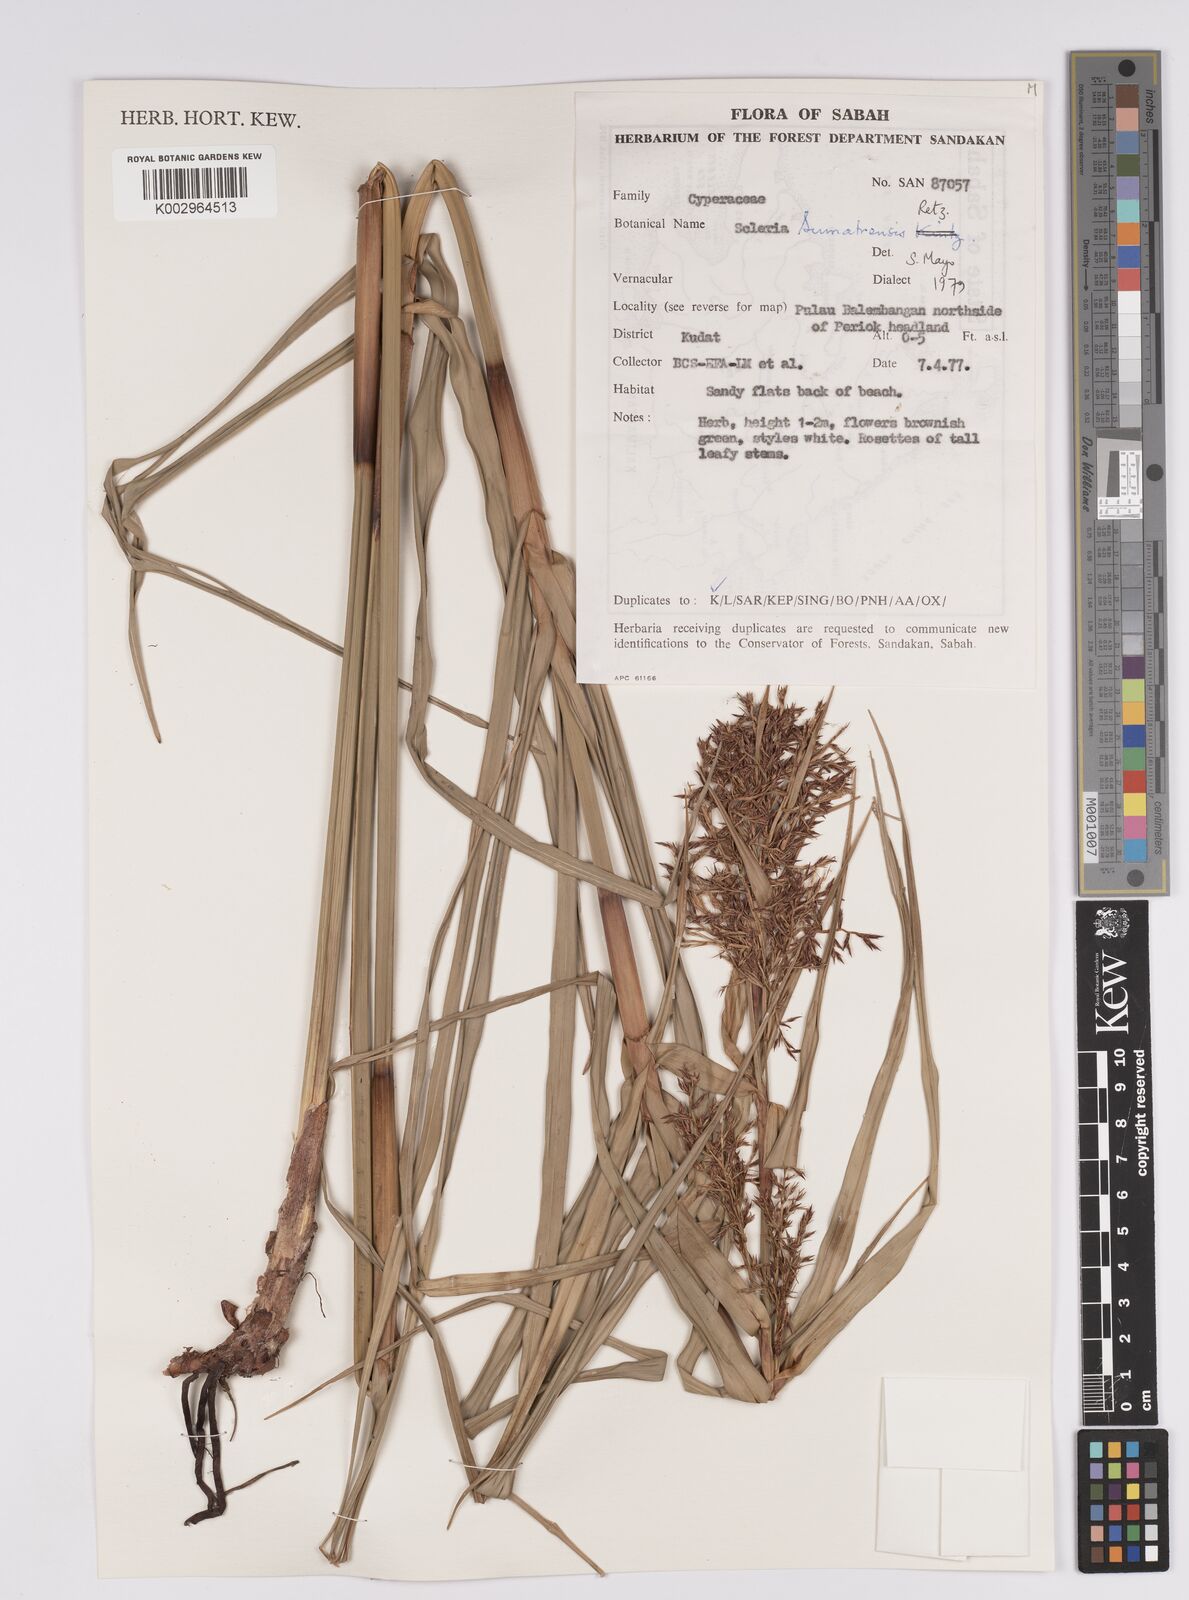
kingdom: Plantae
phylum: Tracheophyta
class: Liliopsida
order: Poales
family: Cyperaceae
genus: Scleria
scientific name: Scleria sumatrensis
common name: Sumatran scleria
